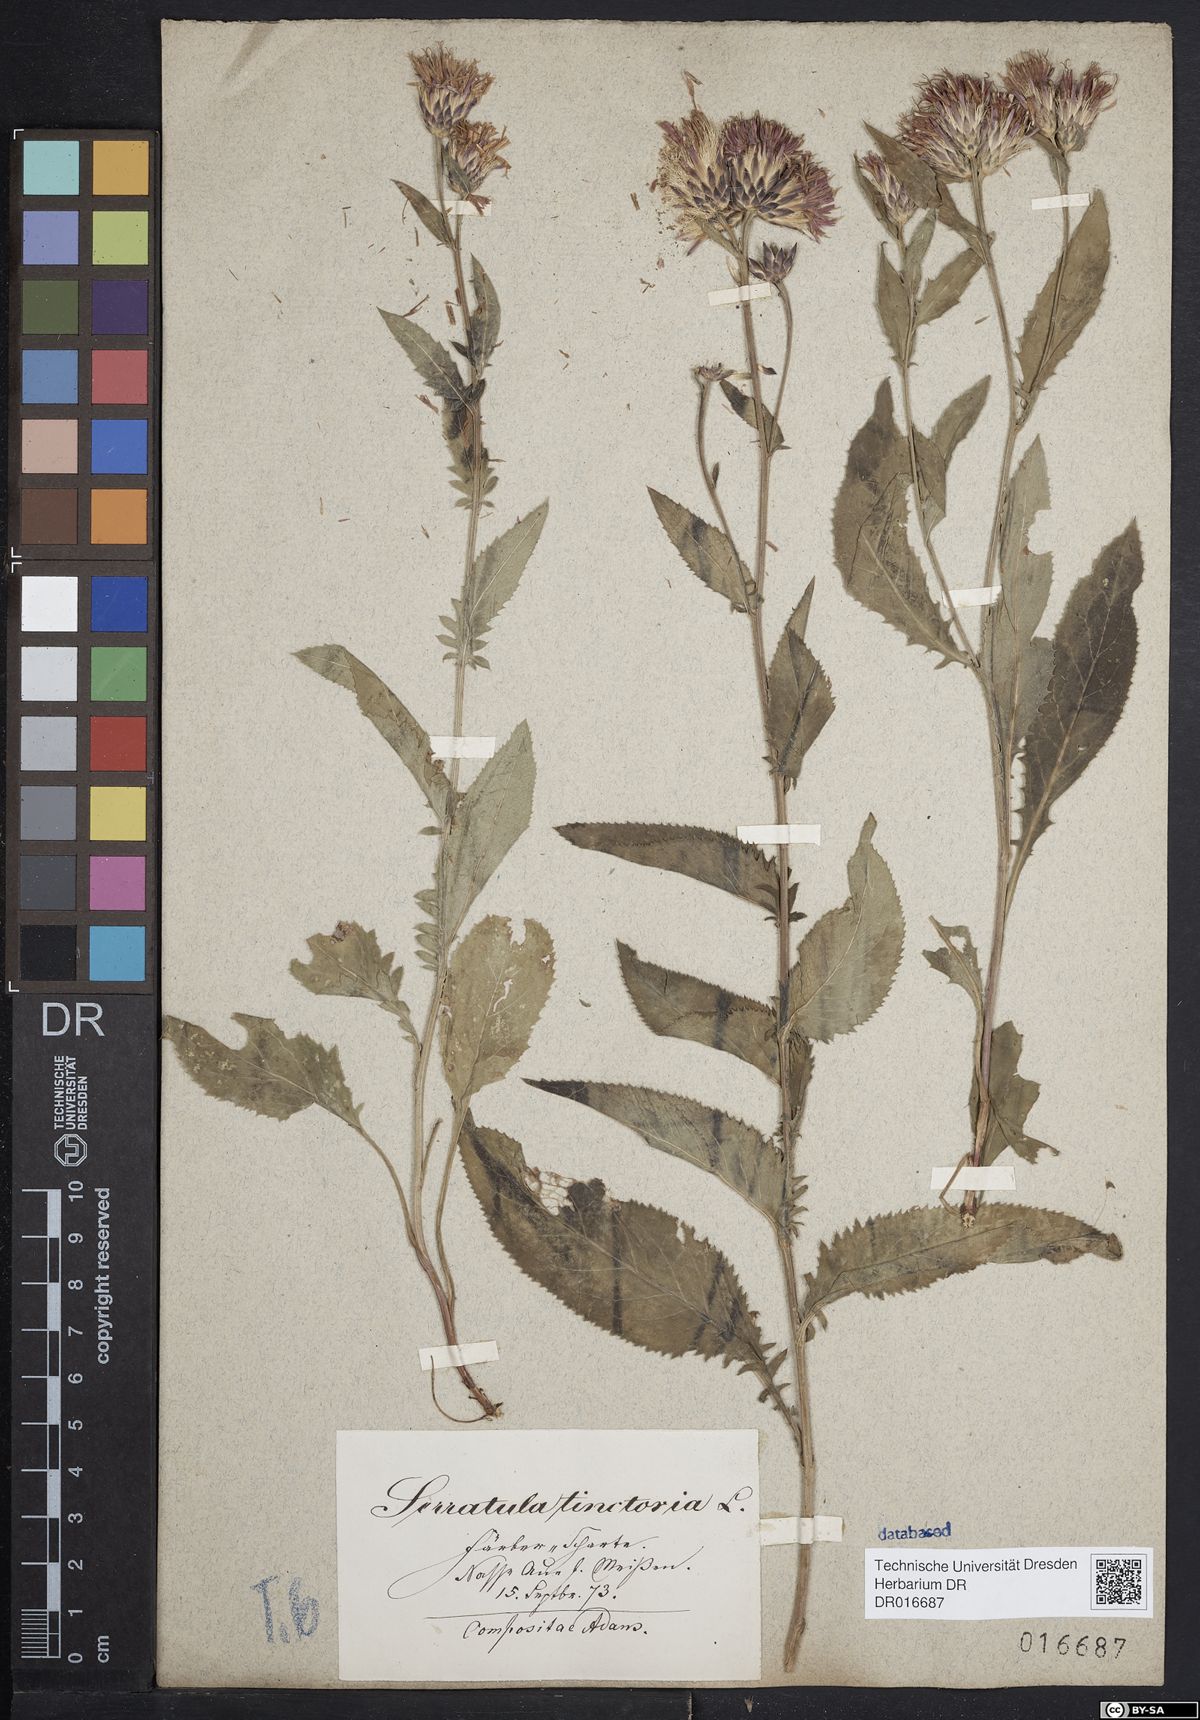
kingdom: Plantae
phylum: Tracheophyta
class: Magnoliopsida
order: Asterales
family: Asteraceae
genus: Serratula
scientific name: Serratula tinctoria
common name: Saw-wort
